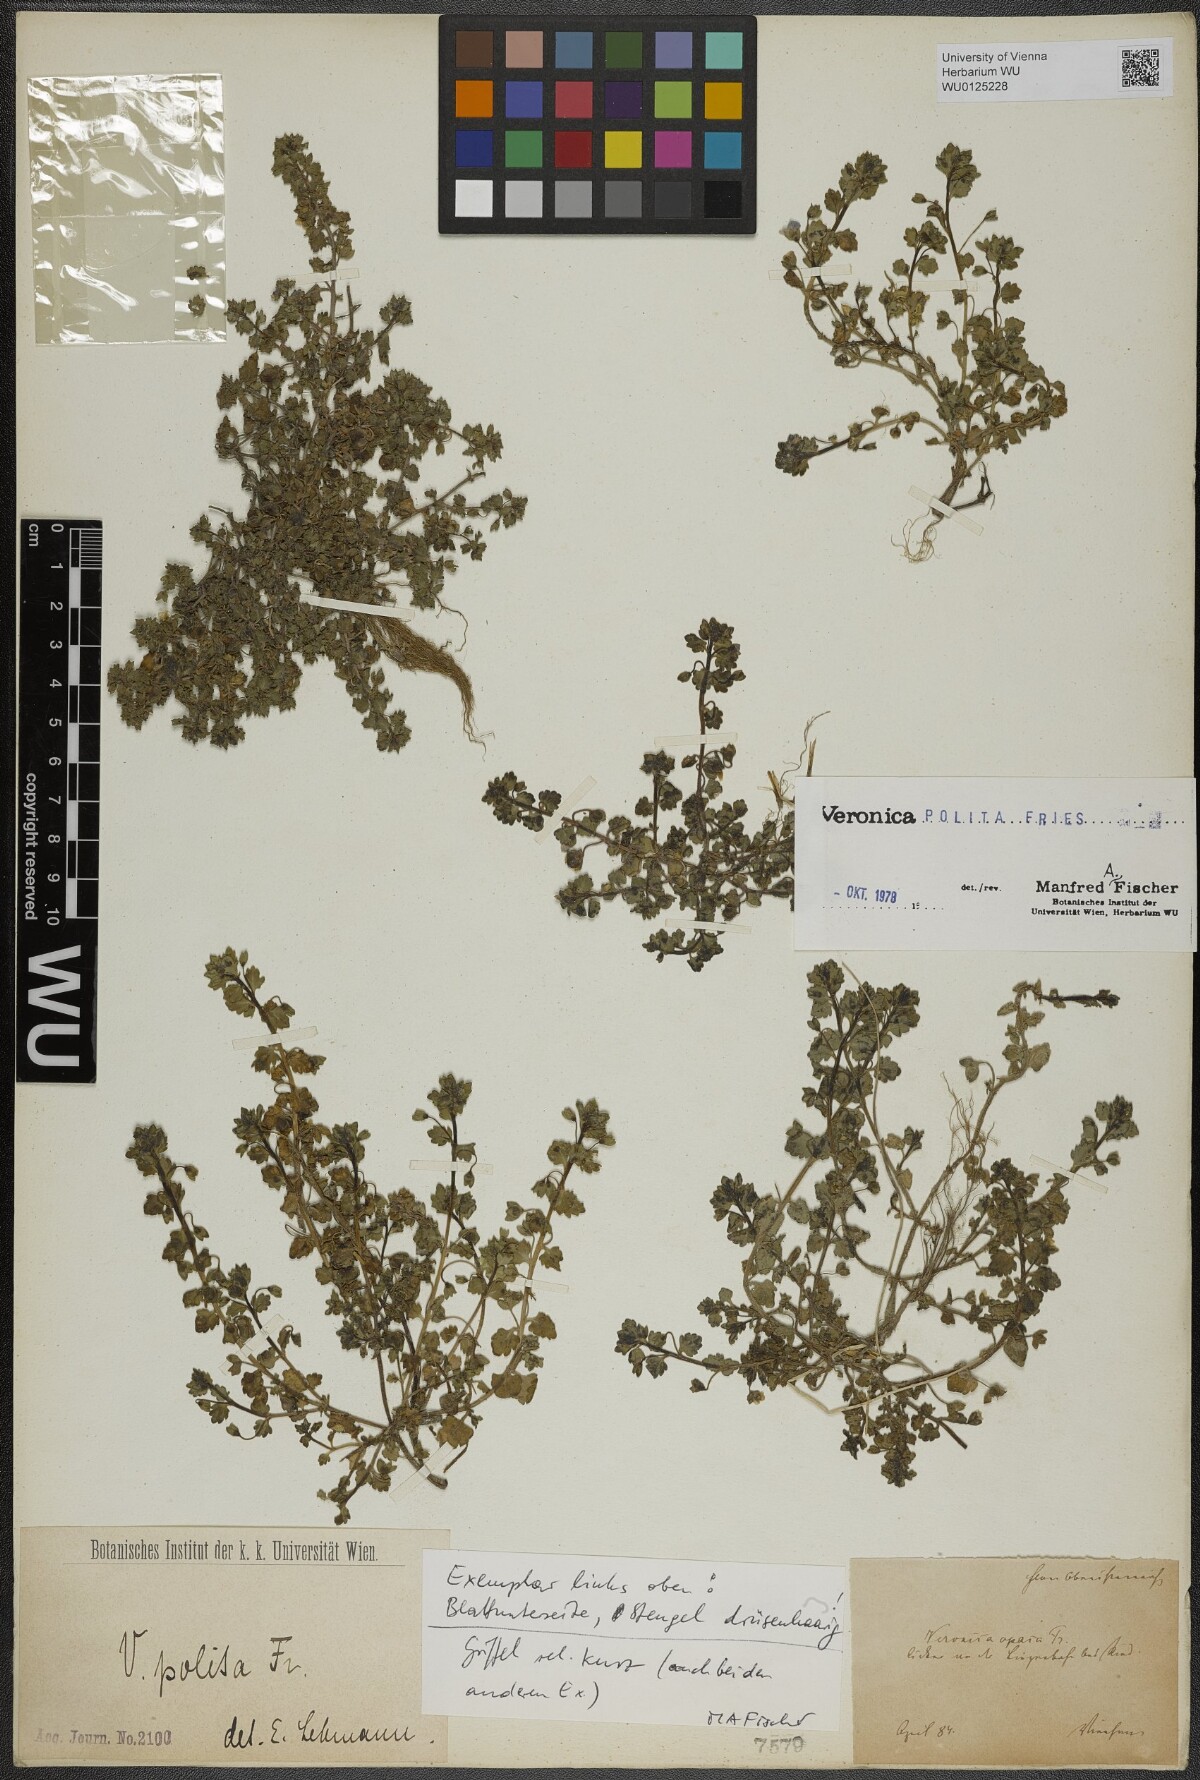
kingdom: Plantae
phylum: Tracheophyta
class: Magnoliopsida
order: Lamiales
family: Plantaginaceae
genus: Veronica
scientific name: Veronica polita
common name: Grey field-speedwell
